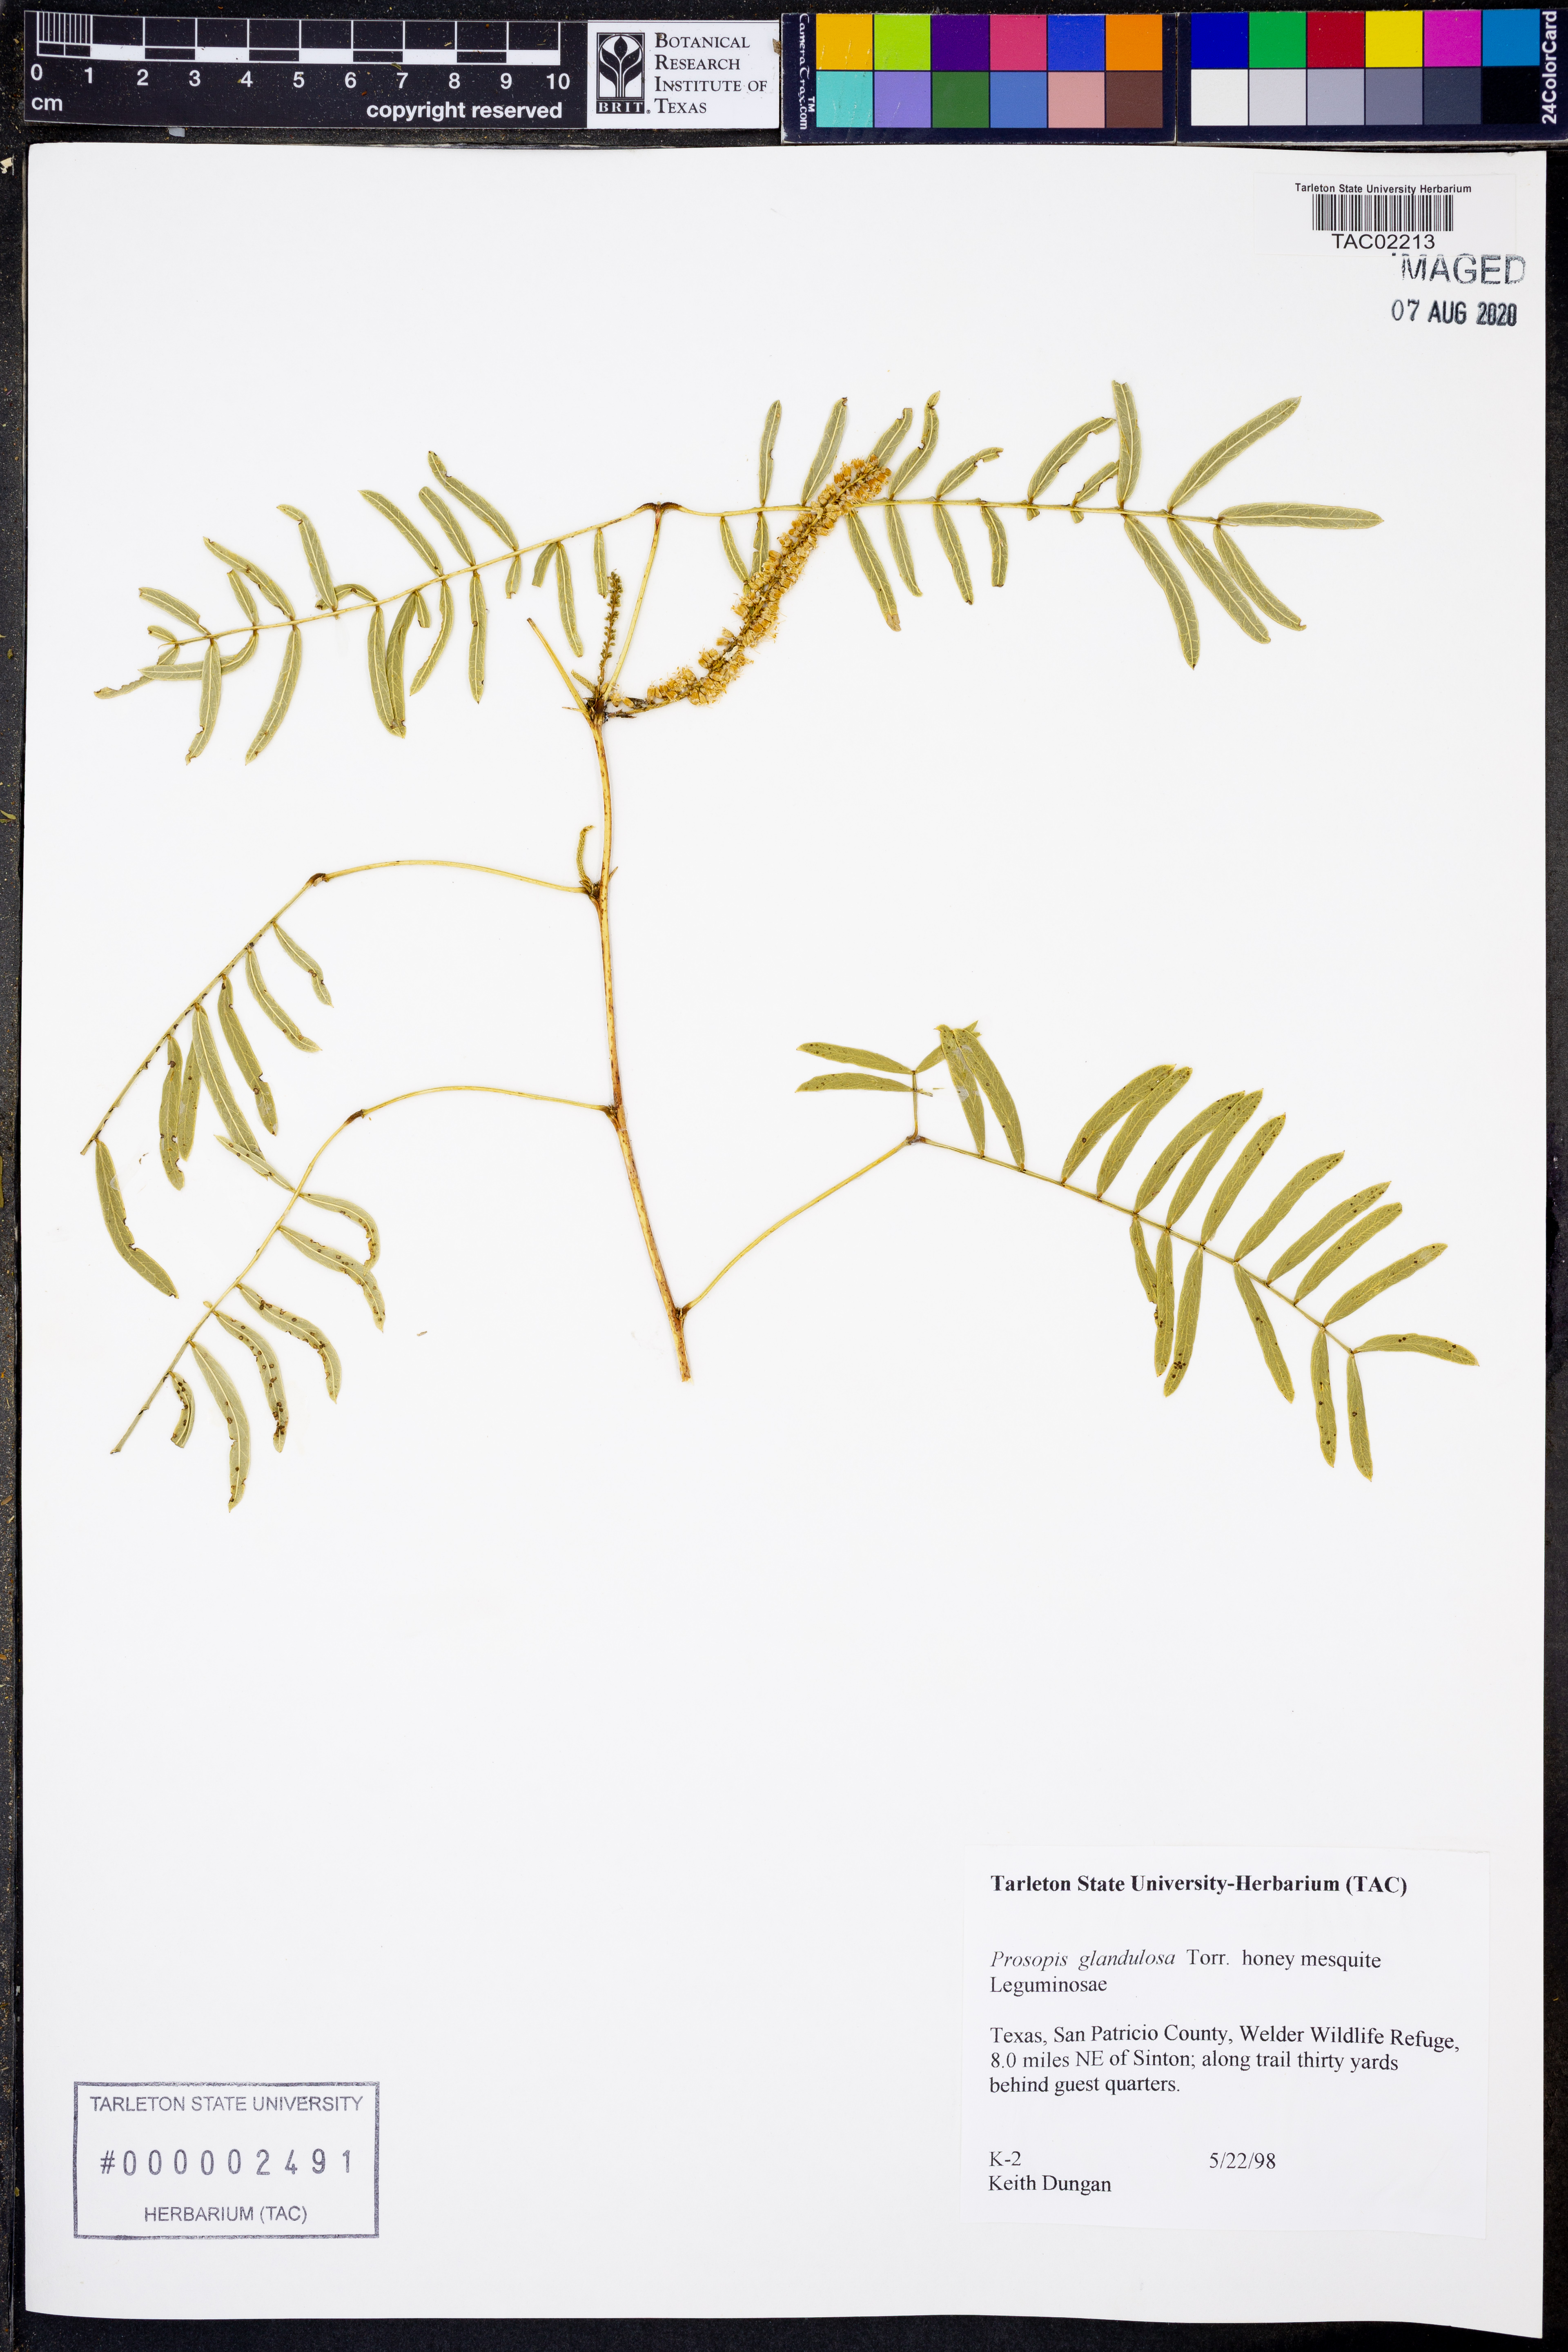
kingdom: Plantae
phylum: Tracheophyta
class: Magnoliopsida
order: Fabales
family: Fabaceae
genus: Prosopis
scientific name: Prosopis glandulosa
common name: Honey mesquite
